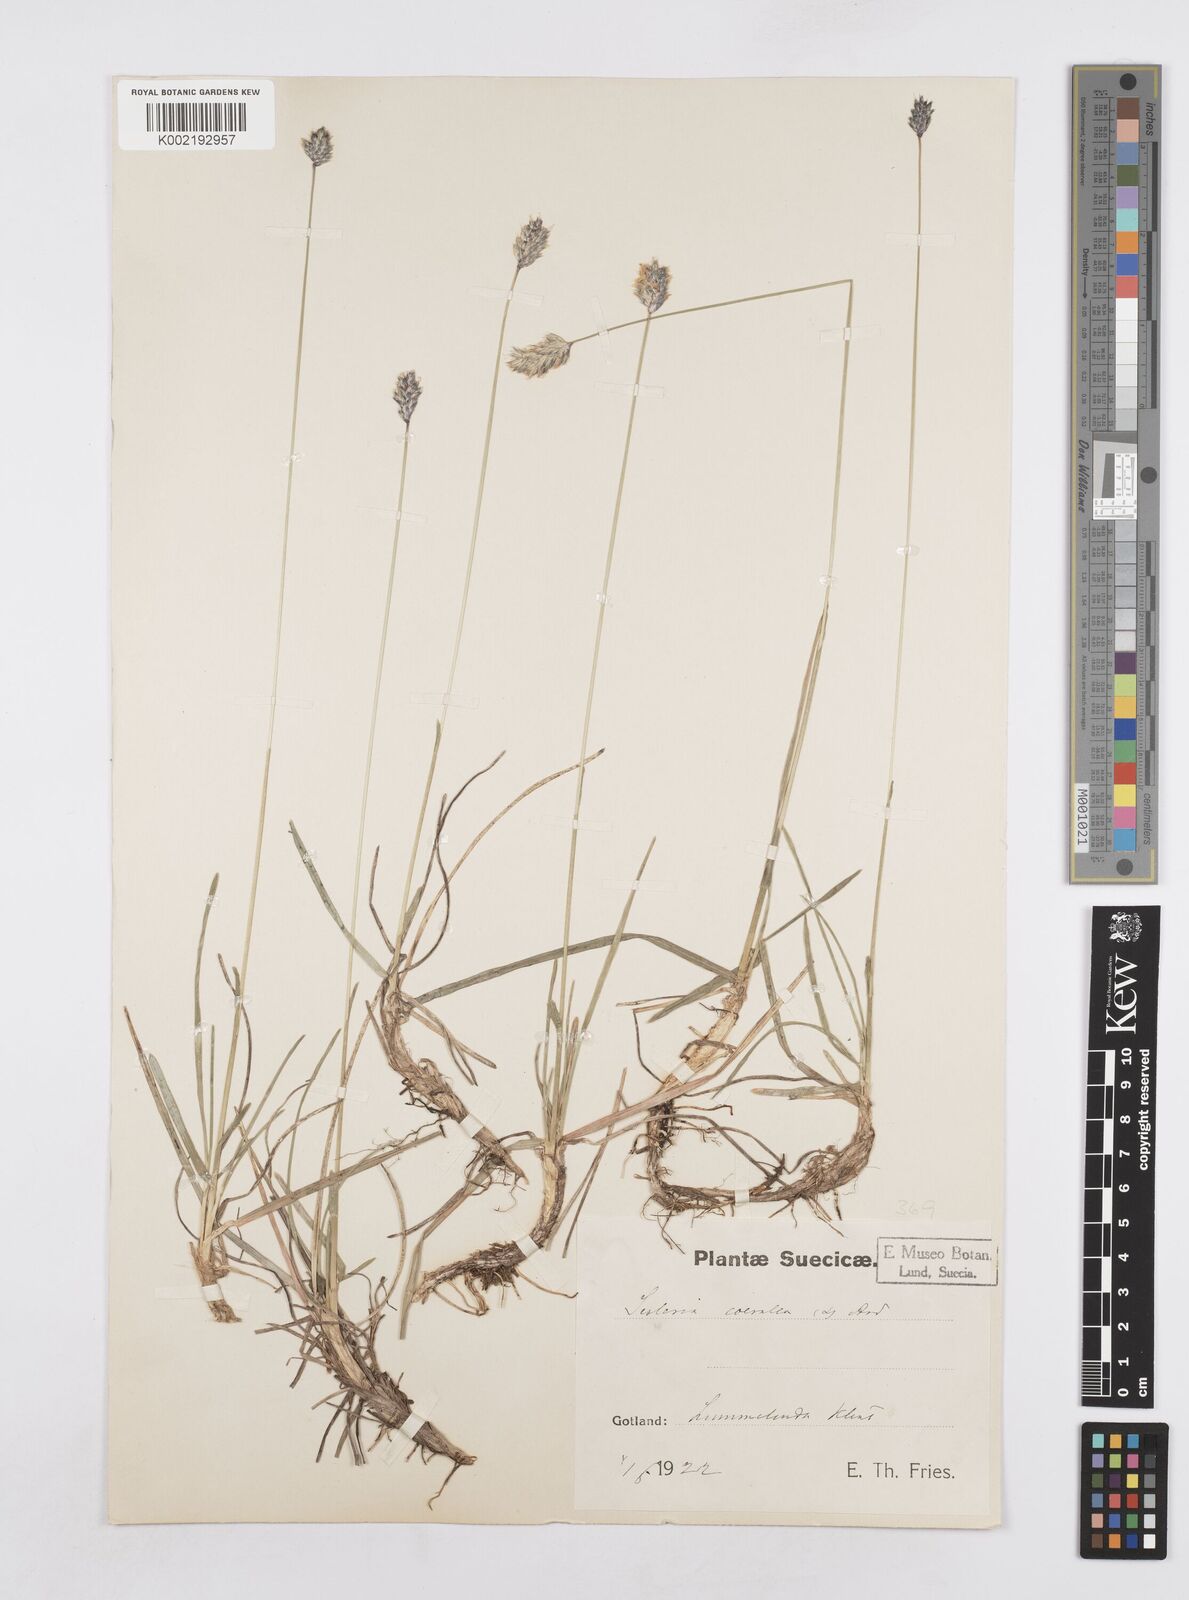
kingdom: Plantae
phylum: Tracheophyta
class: Liliopsida
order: Poales
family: Poaceae
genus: Sesleria
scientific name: Sesleria caerulea
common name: Blue moor-grass
